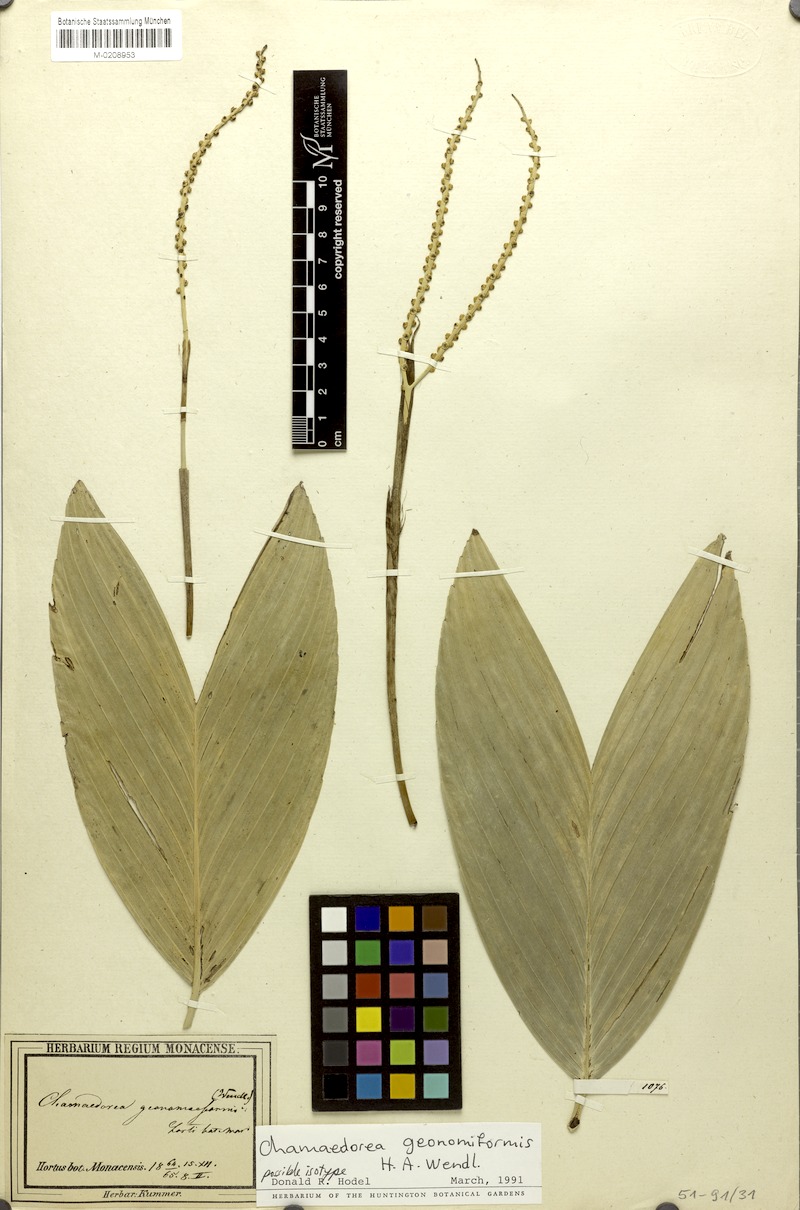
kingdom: Plantae
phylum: Tracheophyta
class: Liliopsida
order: Arecales
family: Arecaceae
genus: Chamaedorea
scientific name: Chamaedorea geonomiformis
